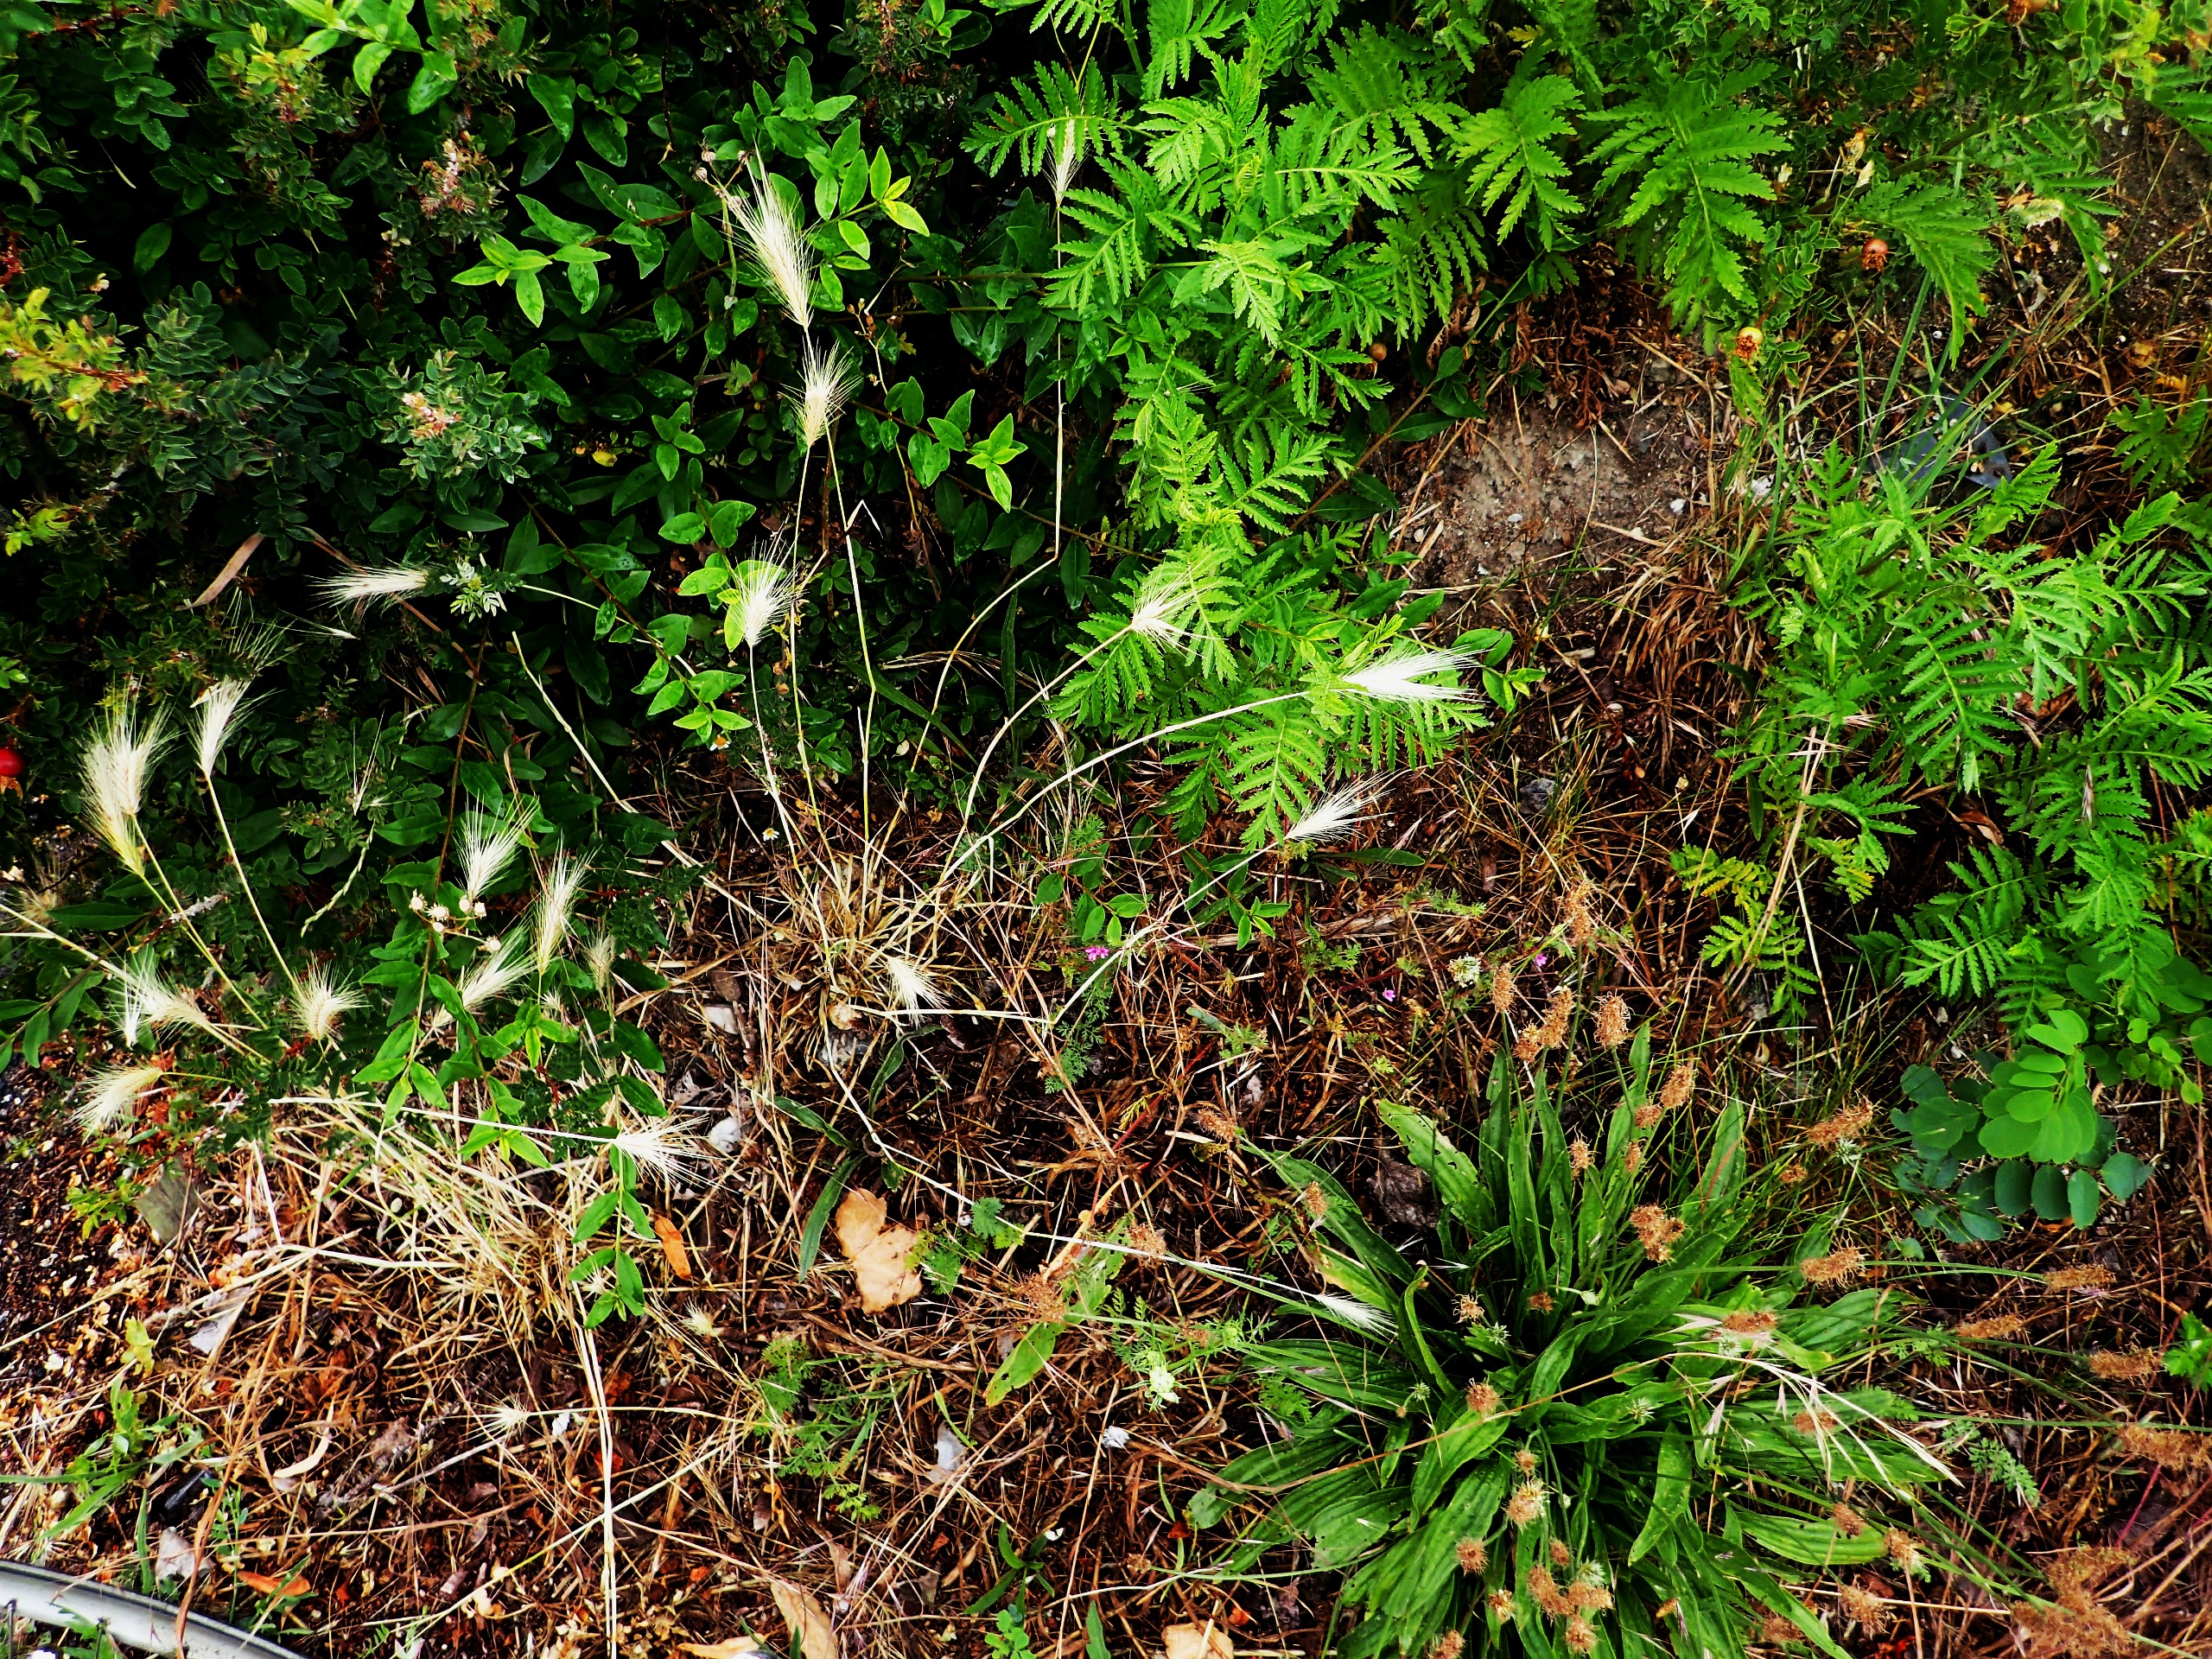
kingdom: Plantae
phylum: Tracheophyta
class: Liliopsida
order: Poales
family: Poaceae
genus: Hordeum
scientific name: Hordeum murinum
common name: Gold byg
